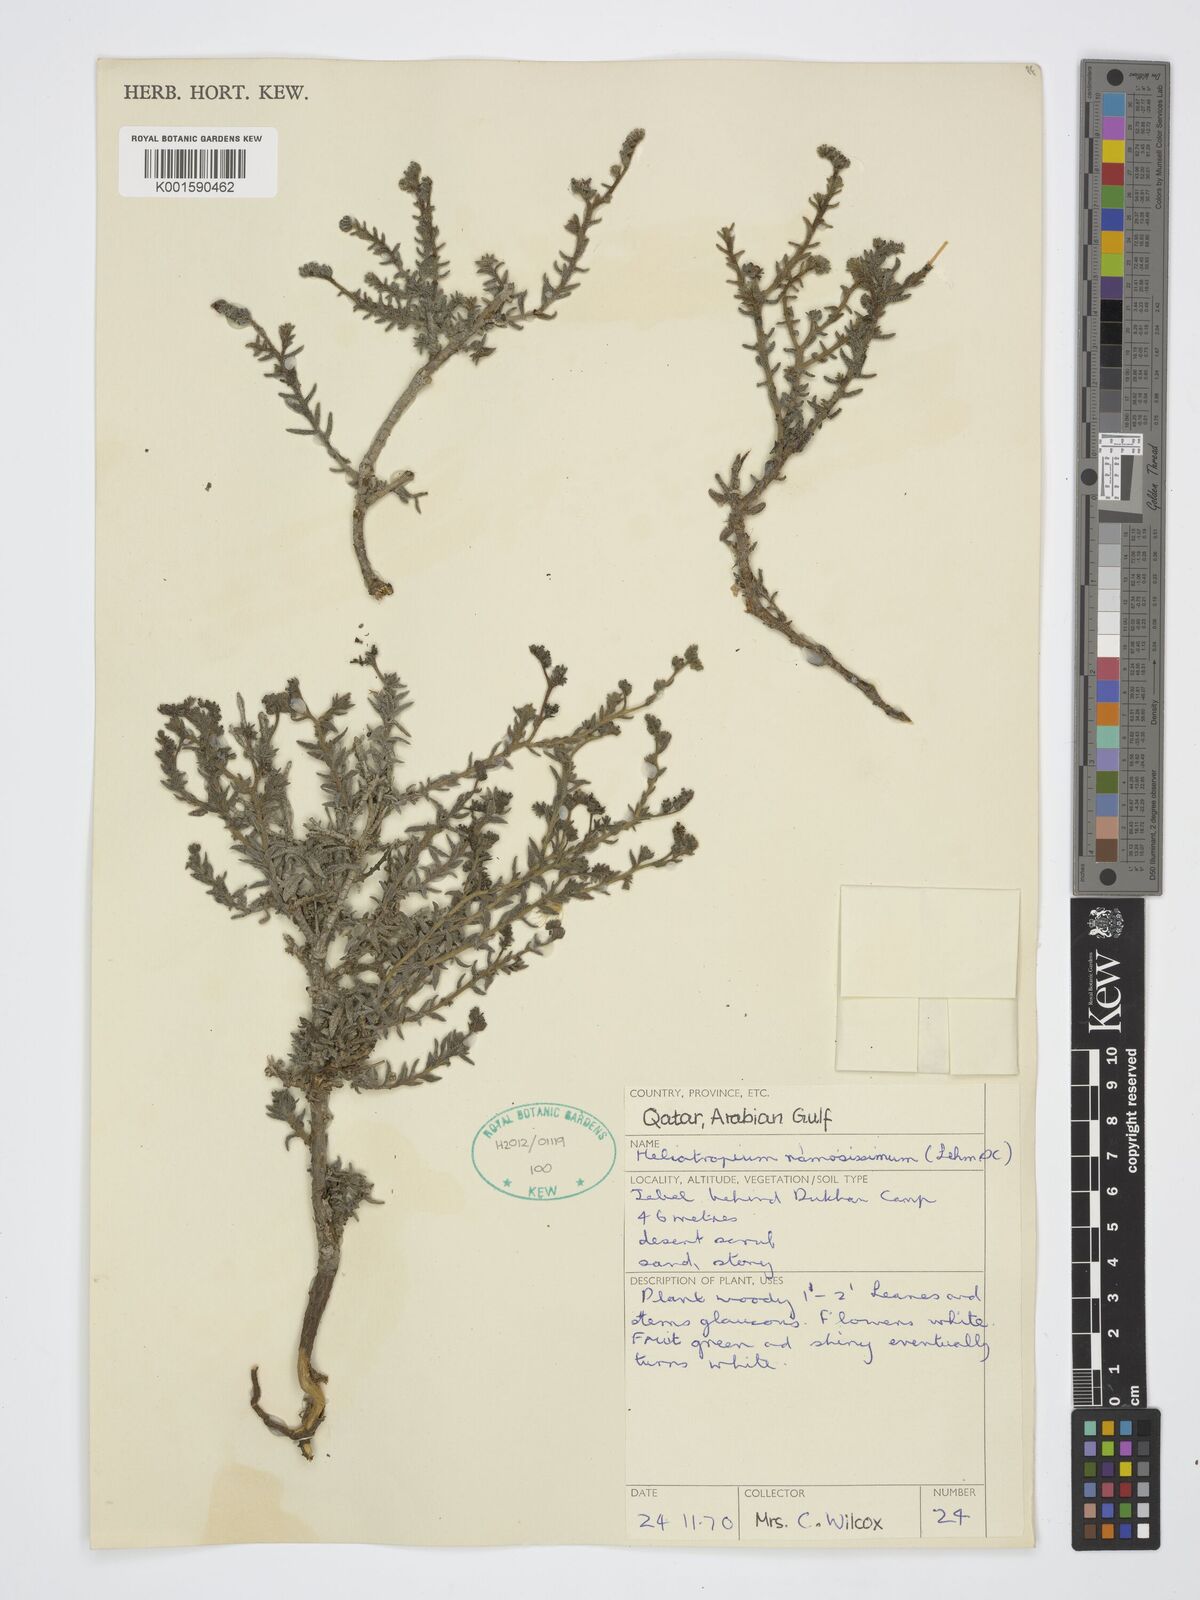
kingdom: Plantae
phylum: Tracheophyta
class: Magnoliopsida
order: Boraginales
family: Heliotropiaceae
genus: Heliotropium
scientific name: Heliotropium ramosissimum
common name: Wavy heliotrope
